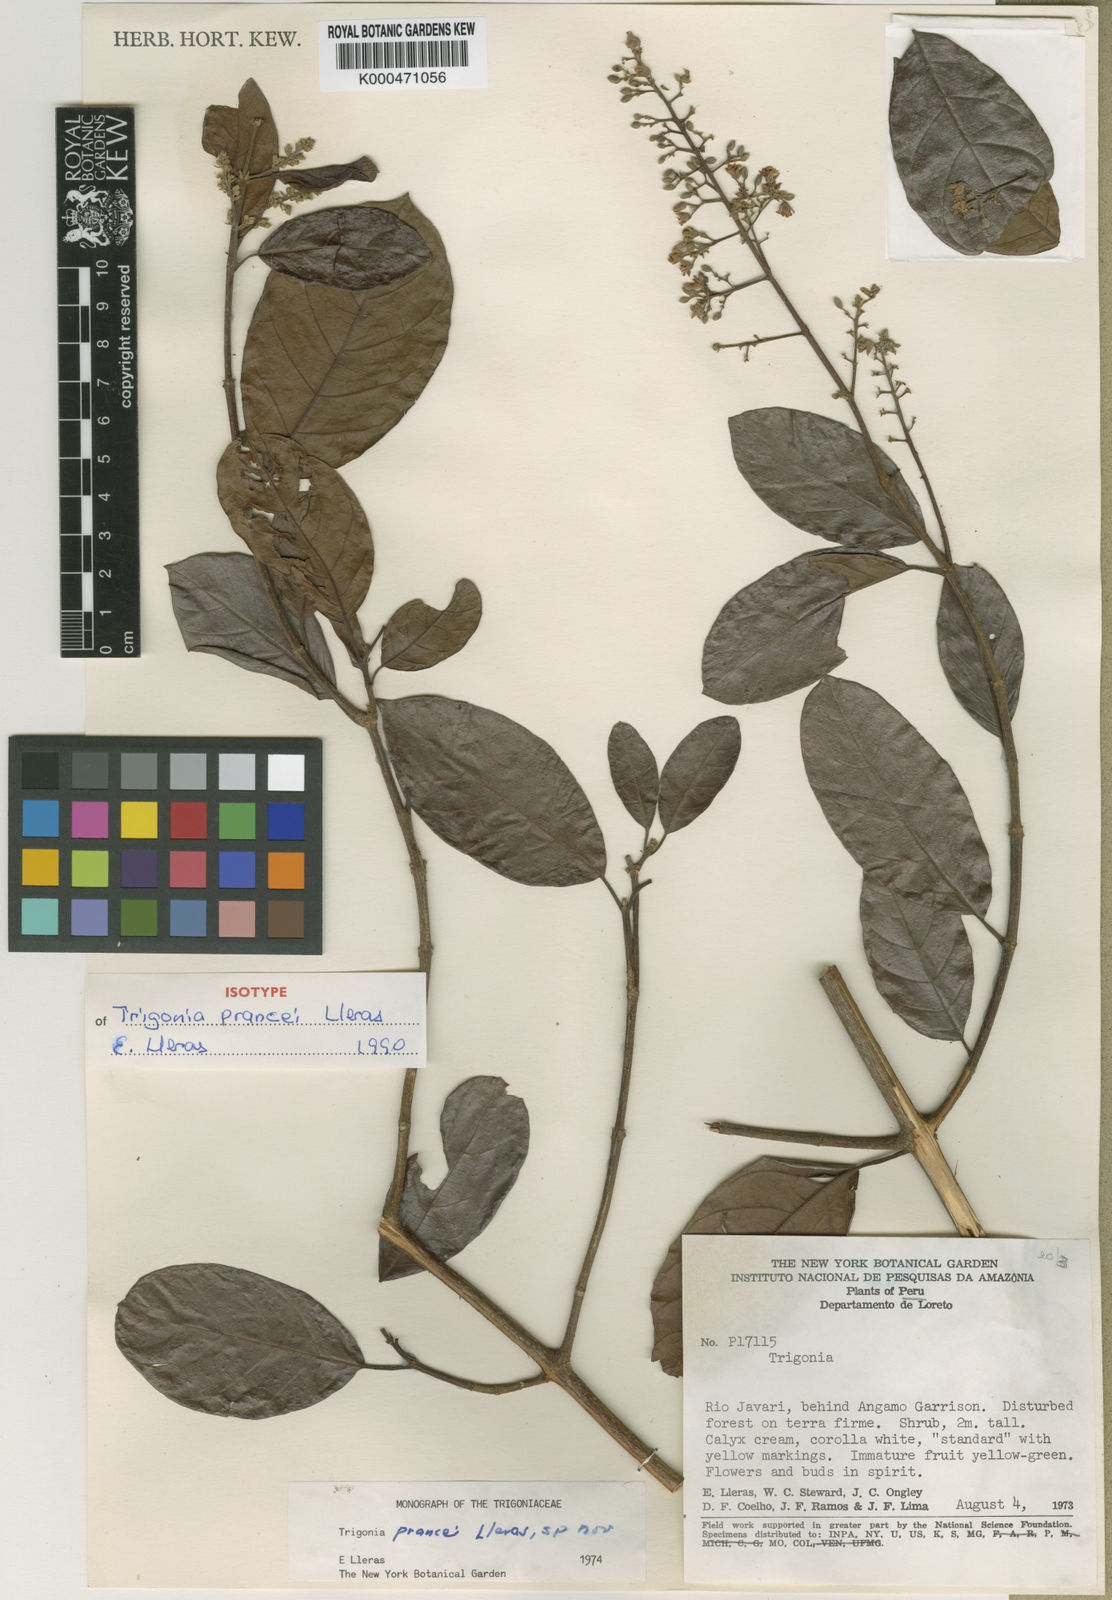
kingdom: Plantae
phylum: Tracheophyta
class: Magnoliopsida
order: Malpighiales
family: Trigoniaceae
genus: Trigonia
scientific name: Trigonia prancei
